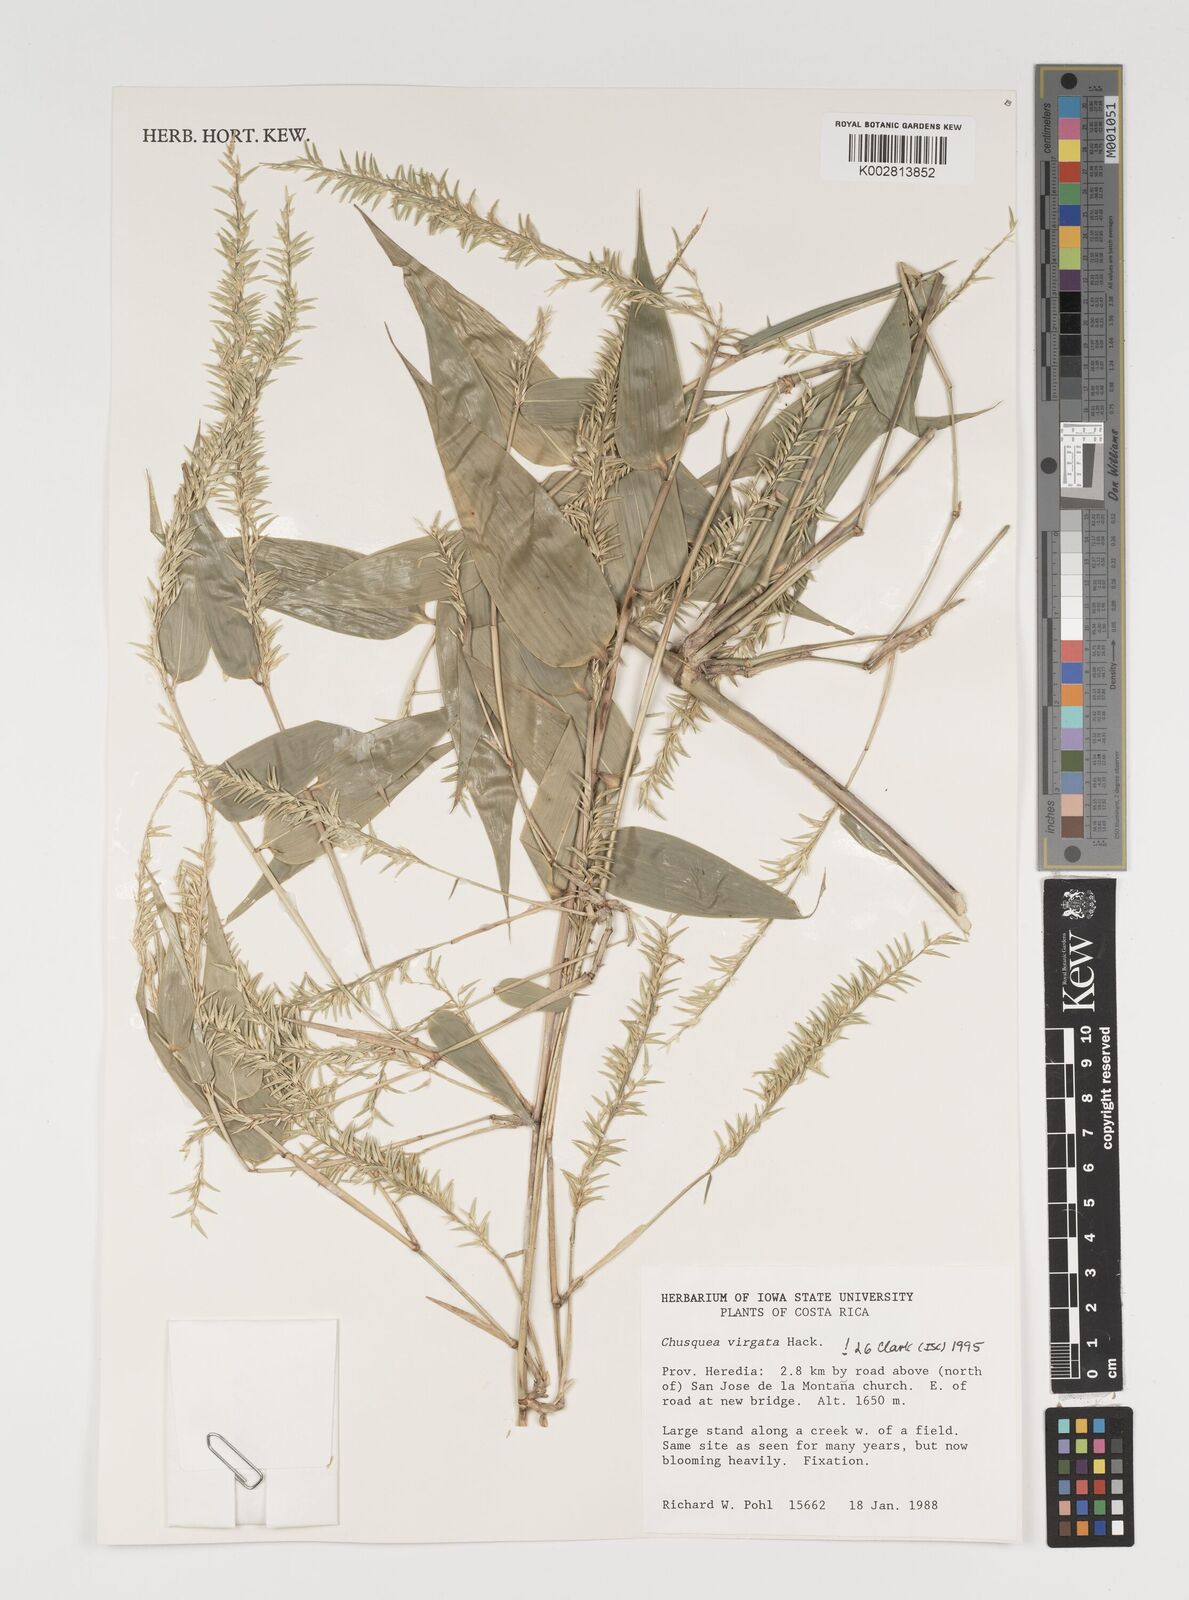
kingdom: Plantae
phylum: Tracheophyta
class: Liliopsida
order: Poales
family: Poaceae
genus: Chusquea
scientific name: Chusquea virgata
